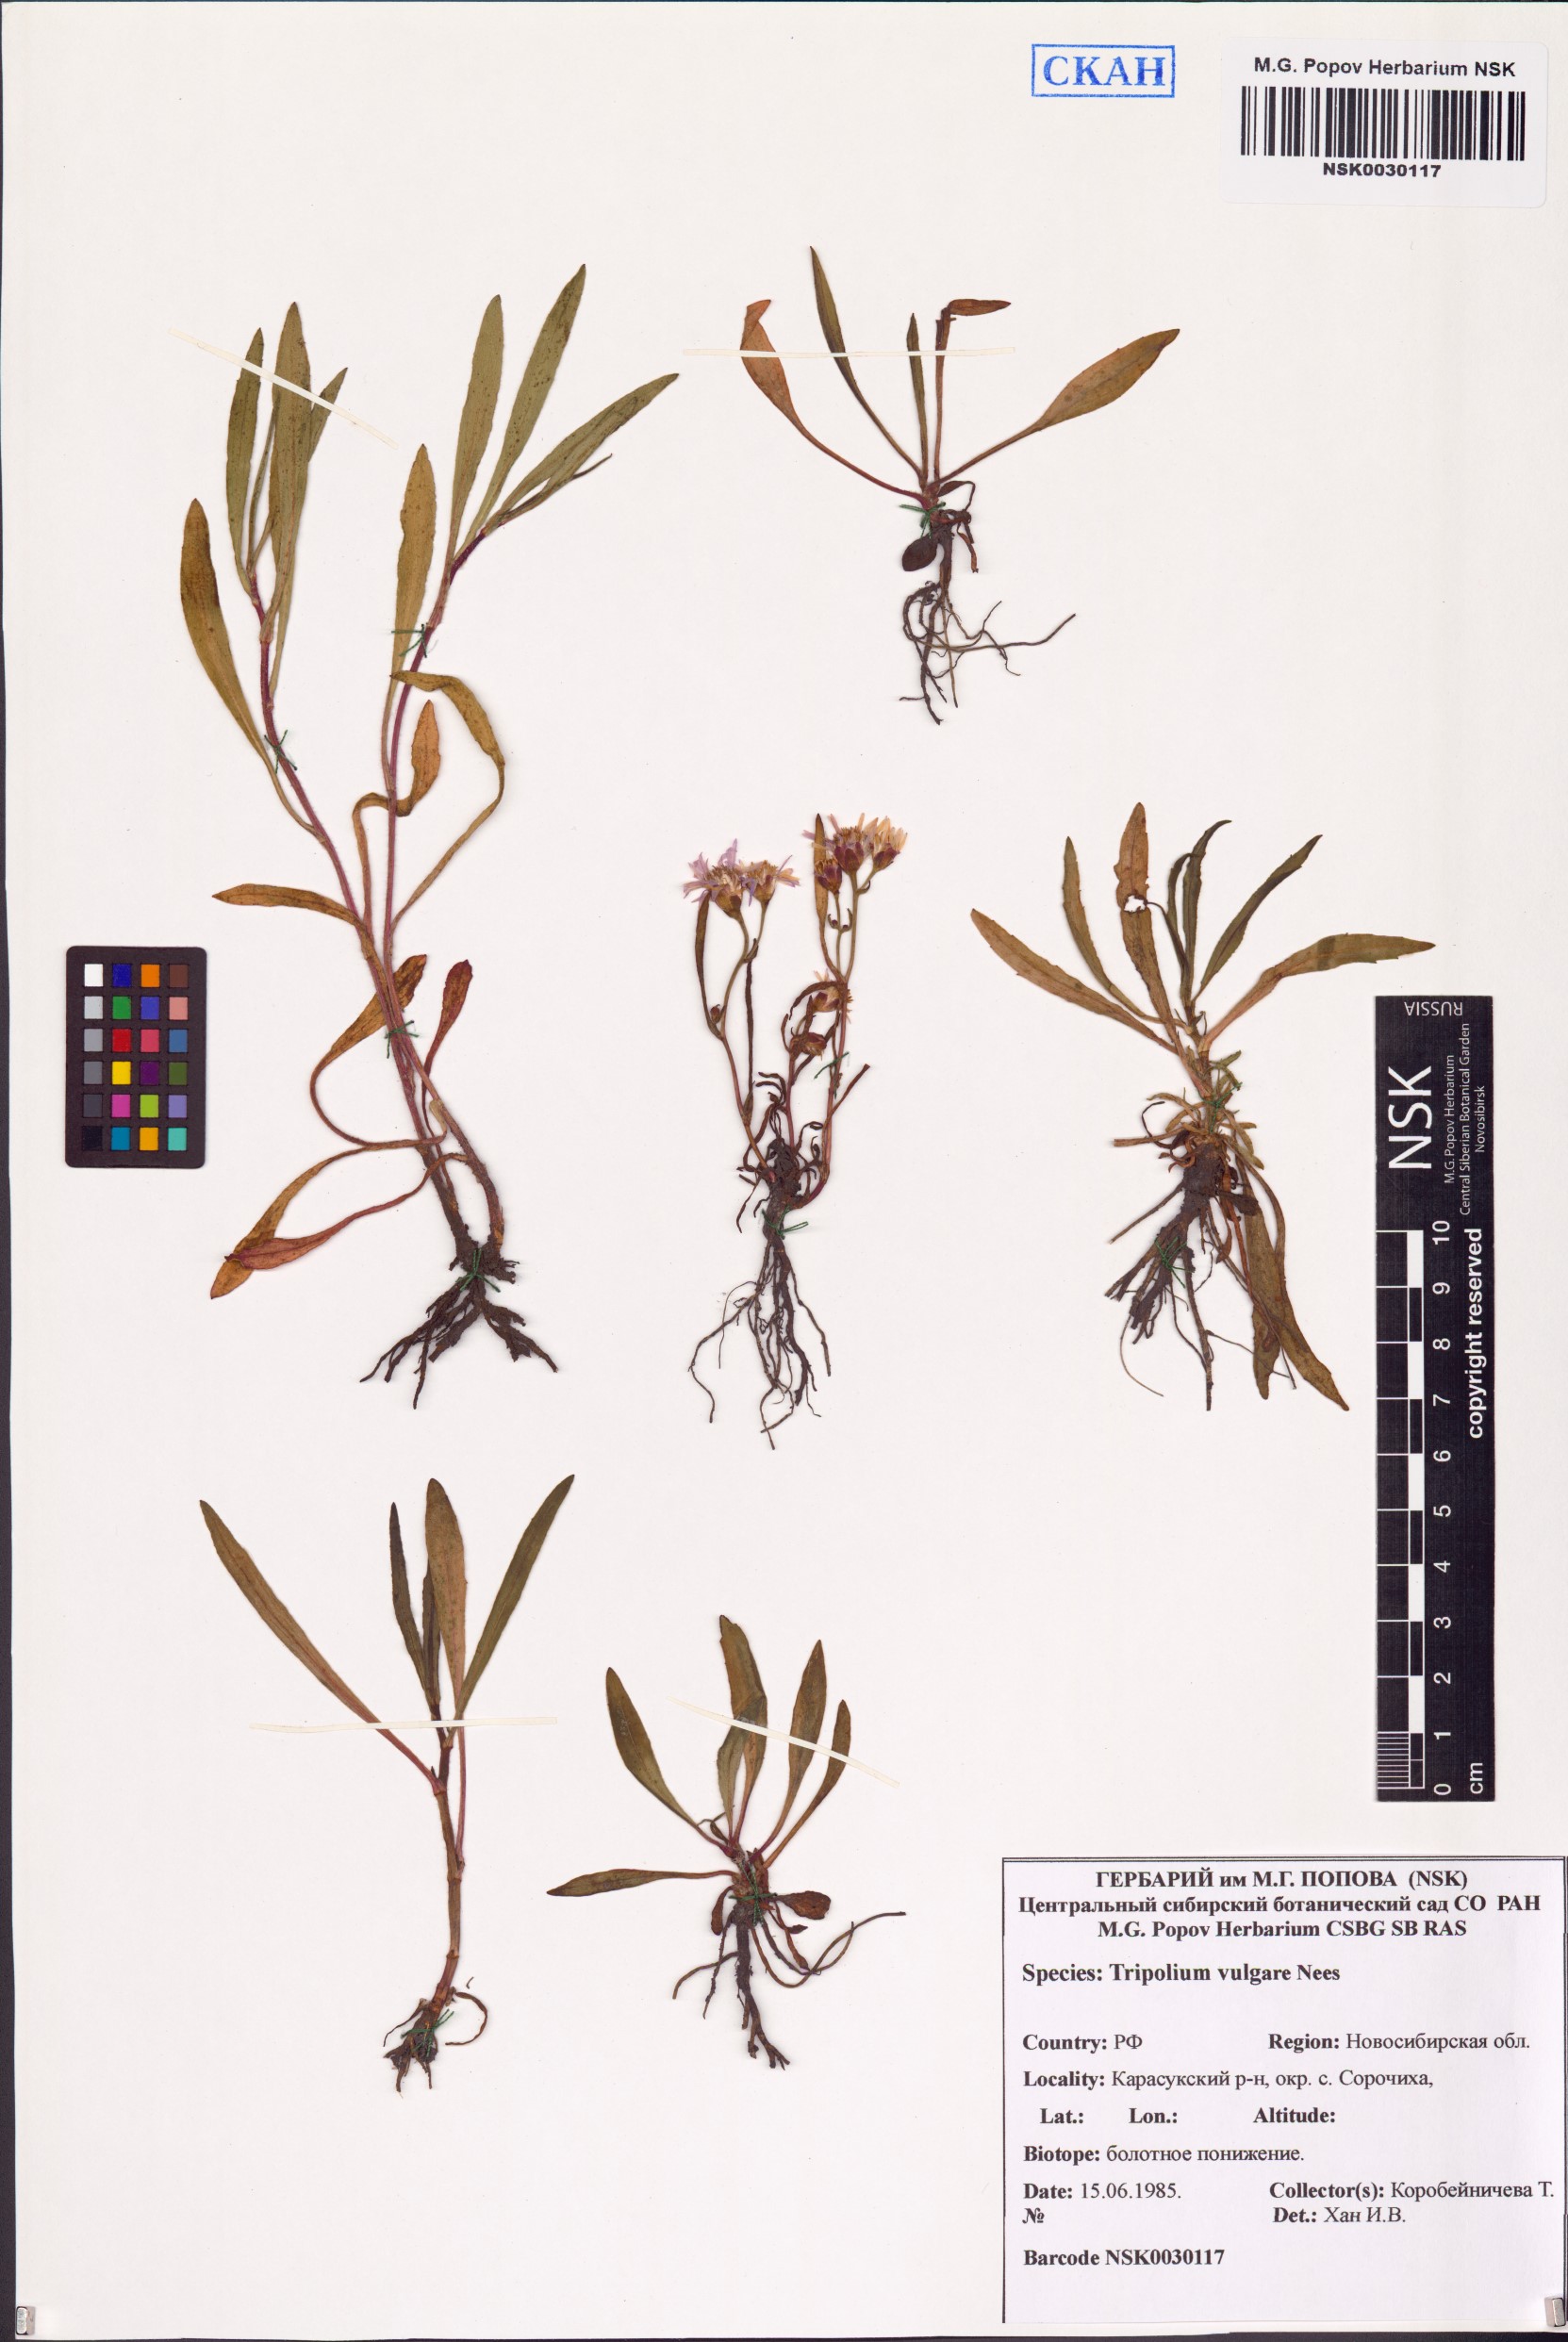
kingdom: Plantae
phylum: Tracheophyta
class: Magnoliopsida
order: Asterales
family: Asteraceae
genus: Tripolium
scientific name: Tripolium pannonicum
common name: Sea aster
